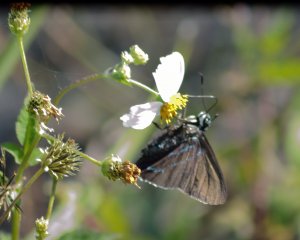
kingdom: Animalia
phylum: Arthropoda
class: Insecta
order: Lepidoptera
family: Hesperiidae
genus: Phocides
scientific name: Phocides pigmalion
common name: Mangrove Skipper
